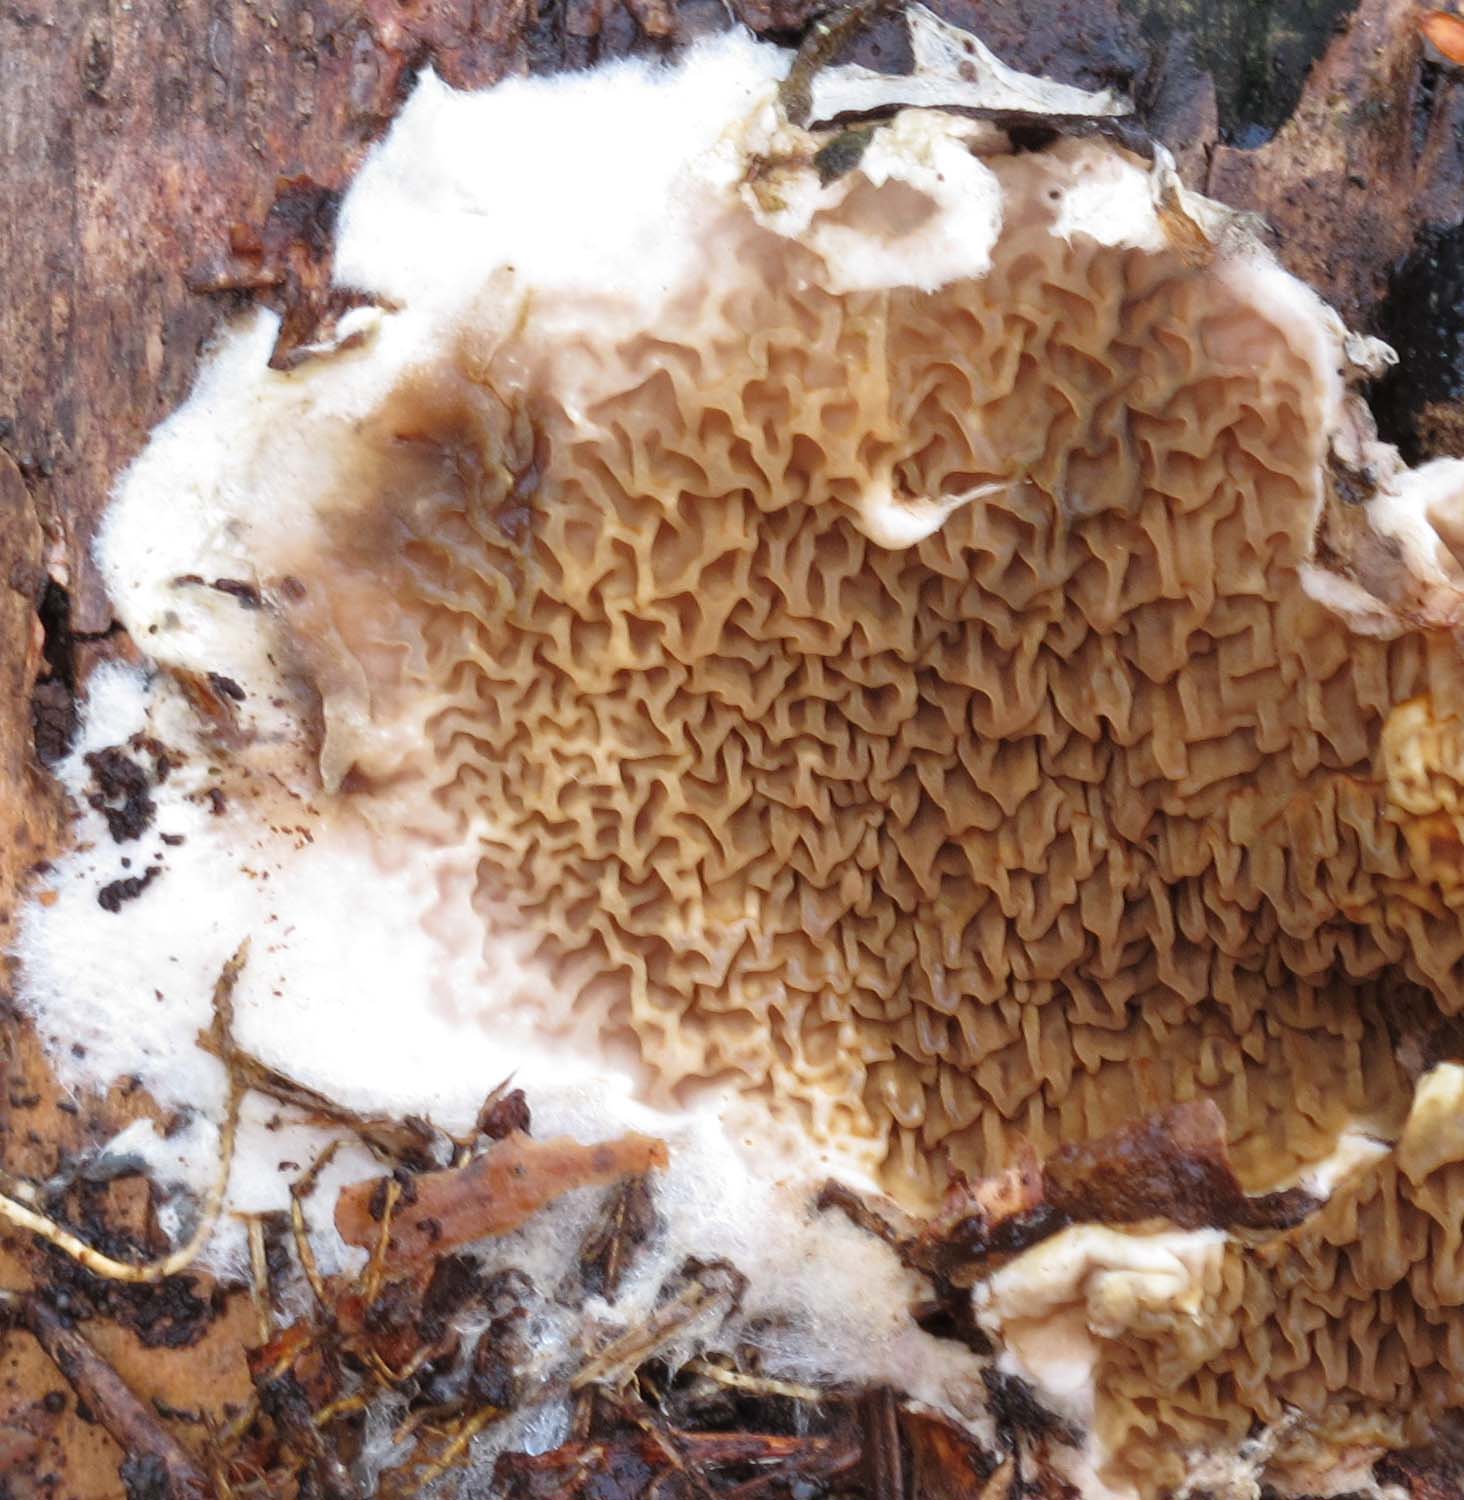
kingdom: Fungi
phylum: Basidiomycota
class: Agaricomycetes
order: Boletales
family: Serpulaceae
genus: Serpula
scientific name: Serpula himantioides
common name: tyndkødet hussvamp
